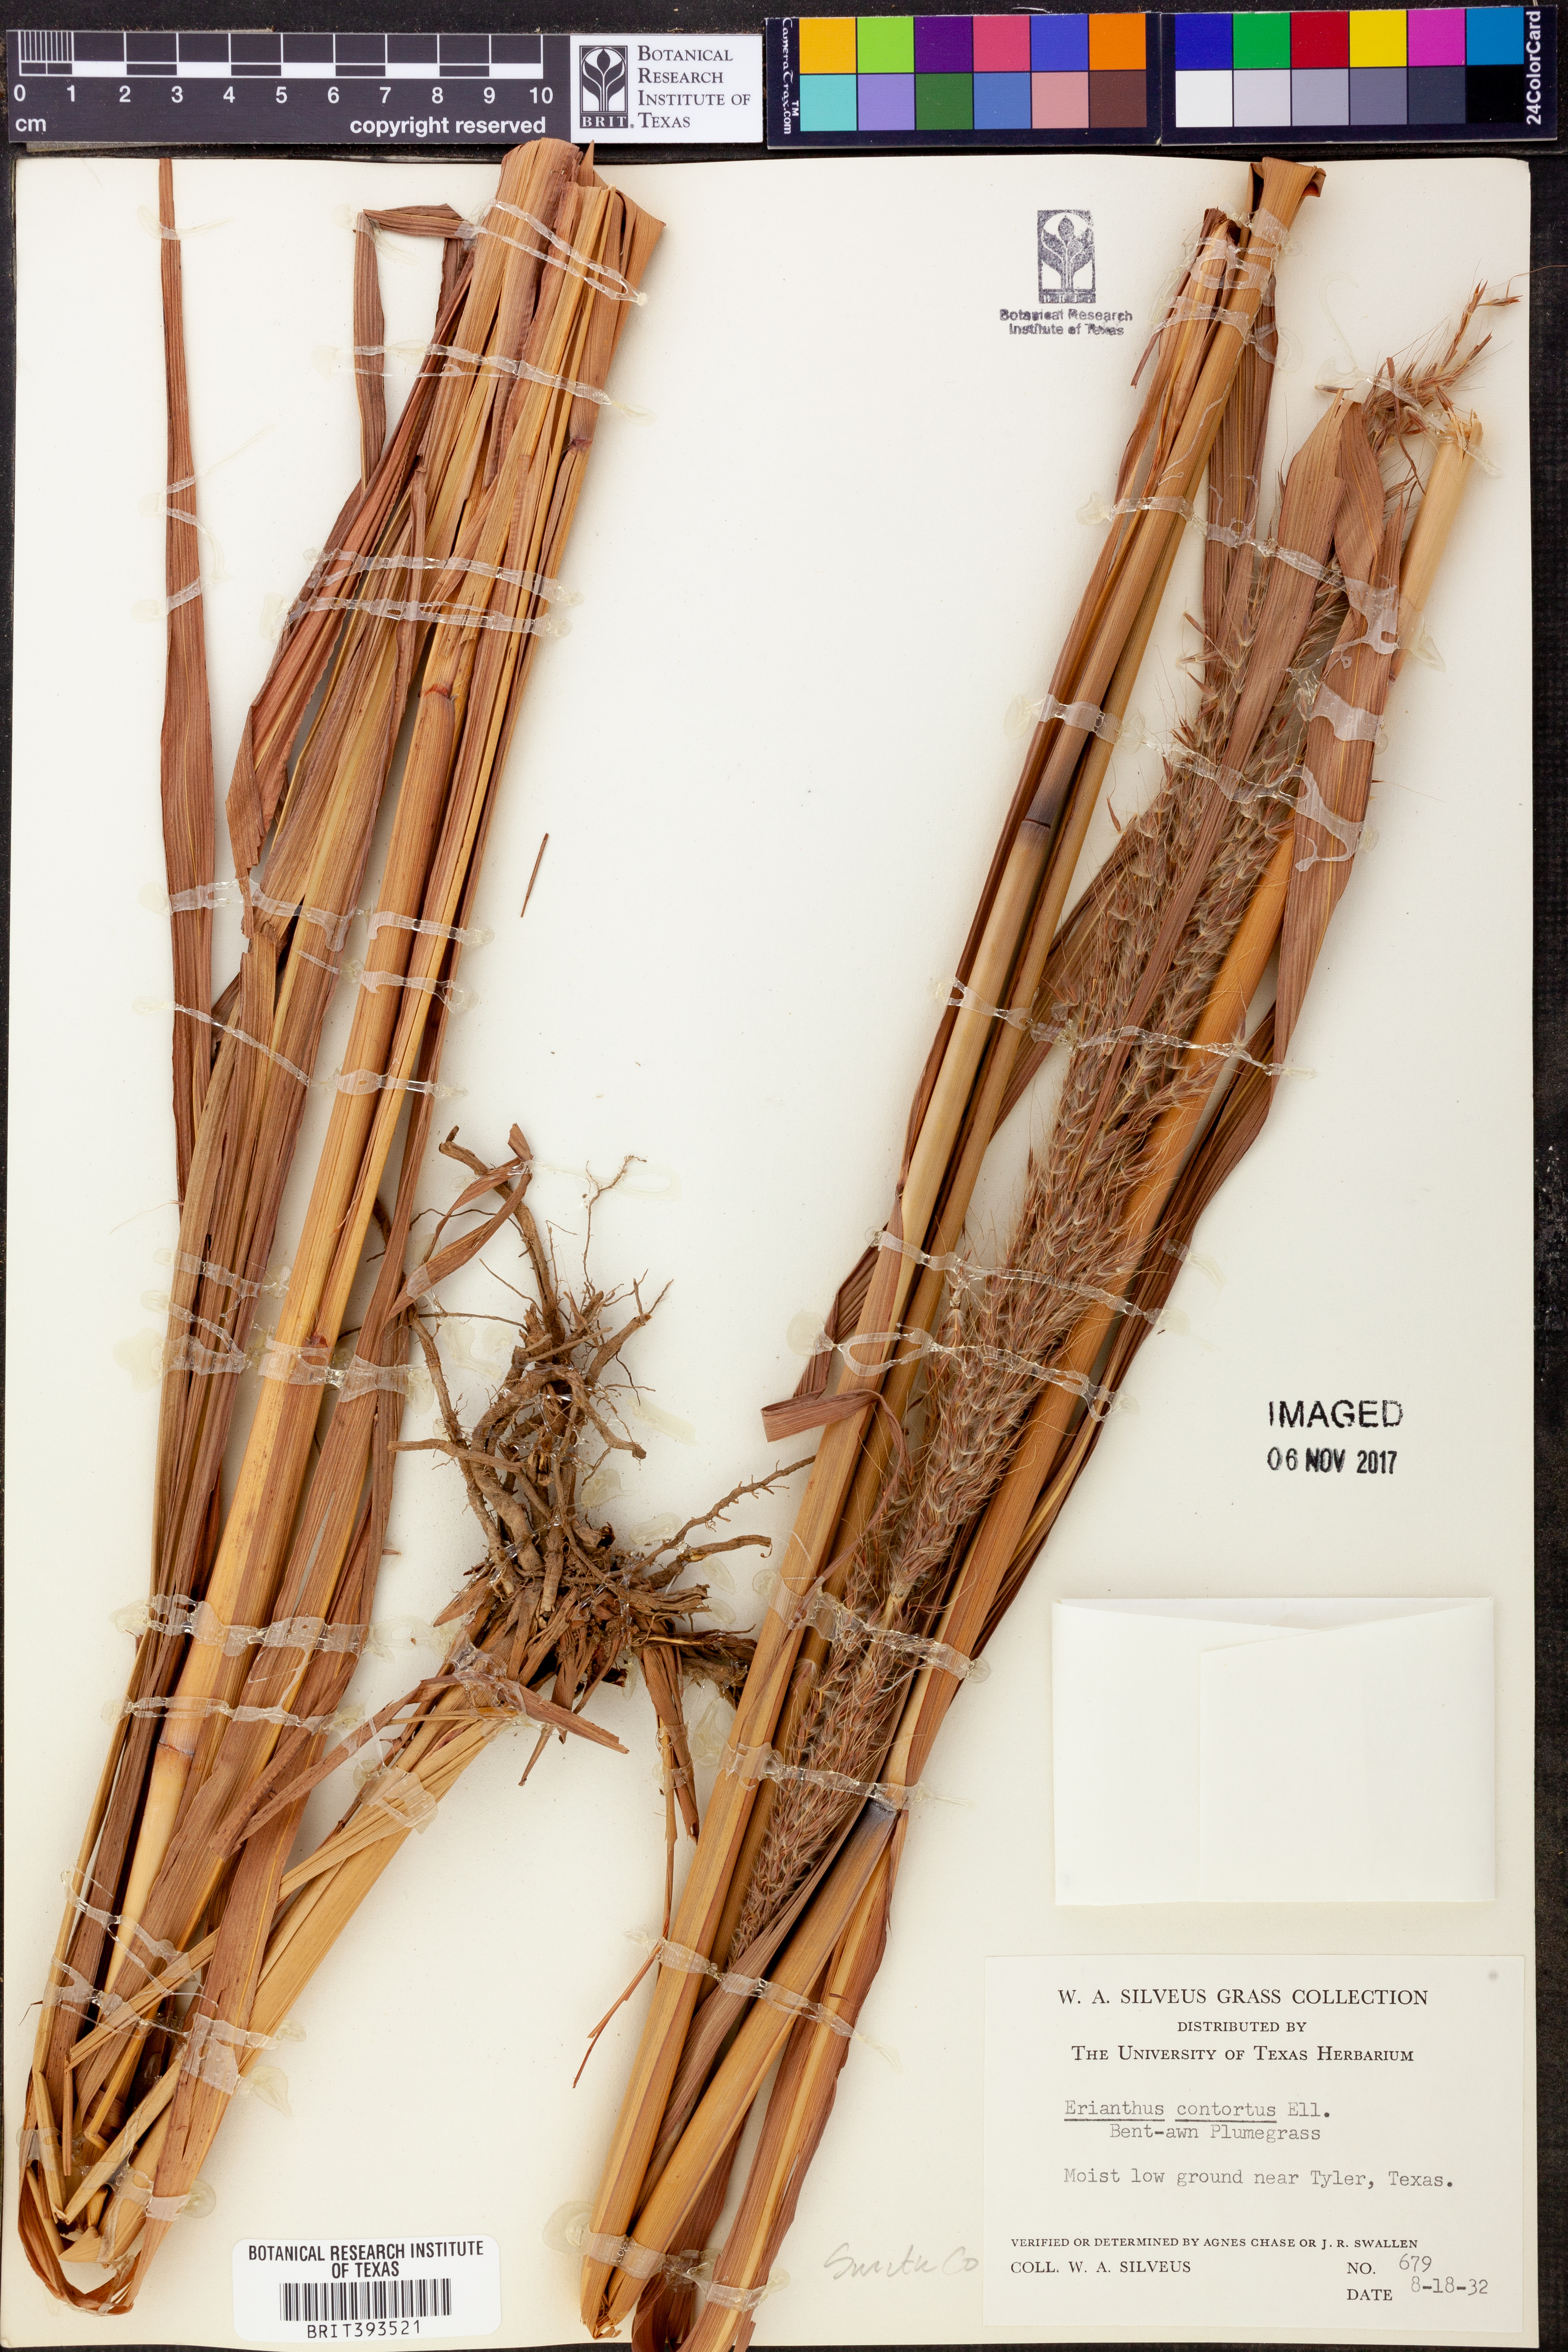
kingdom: Plantae
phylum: Tracheophyta
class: Liliopsida
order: Poales
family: Poaceae
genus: Erianthus
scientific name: Erianthus contortus
